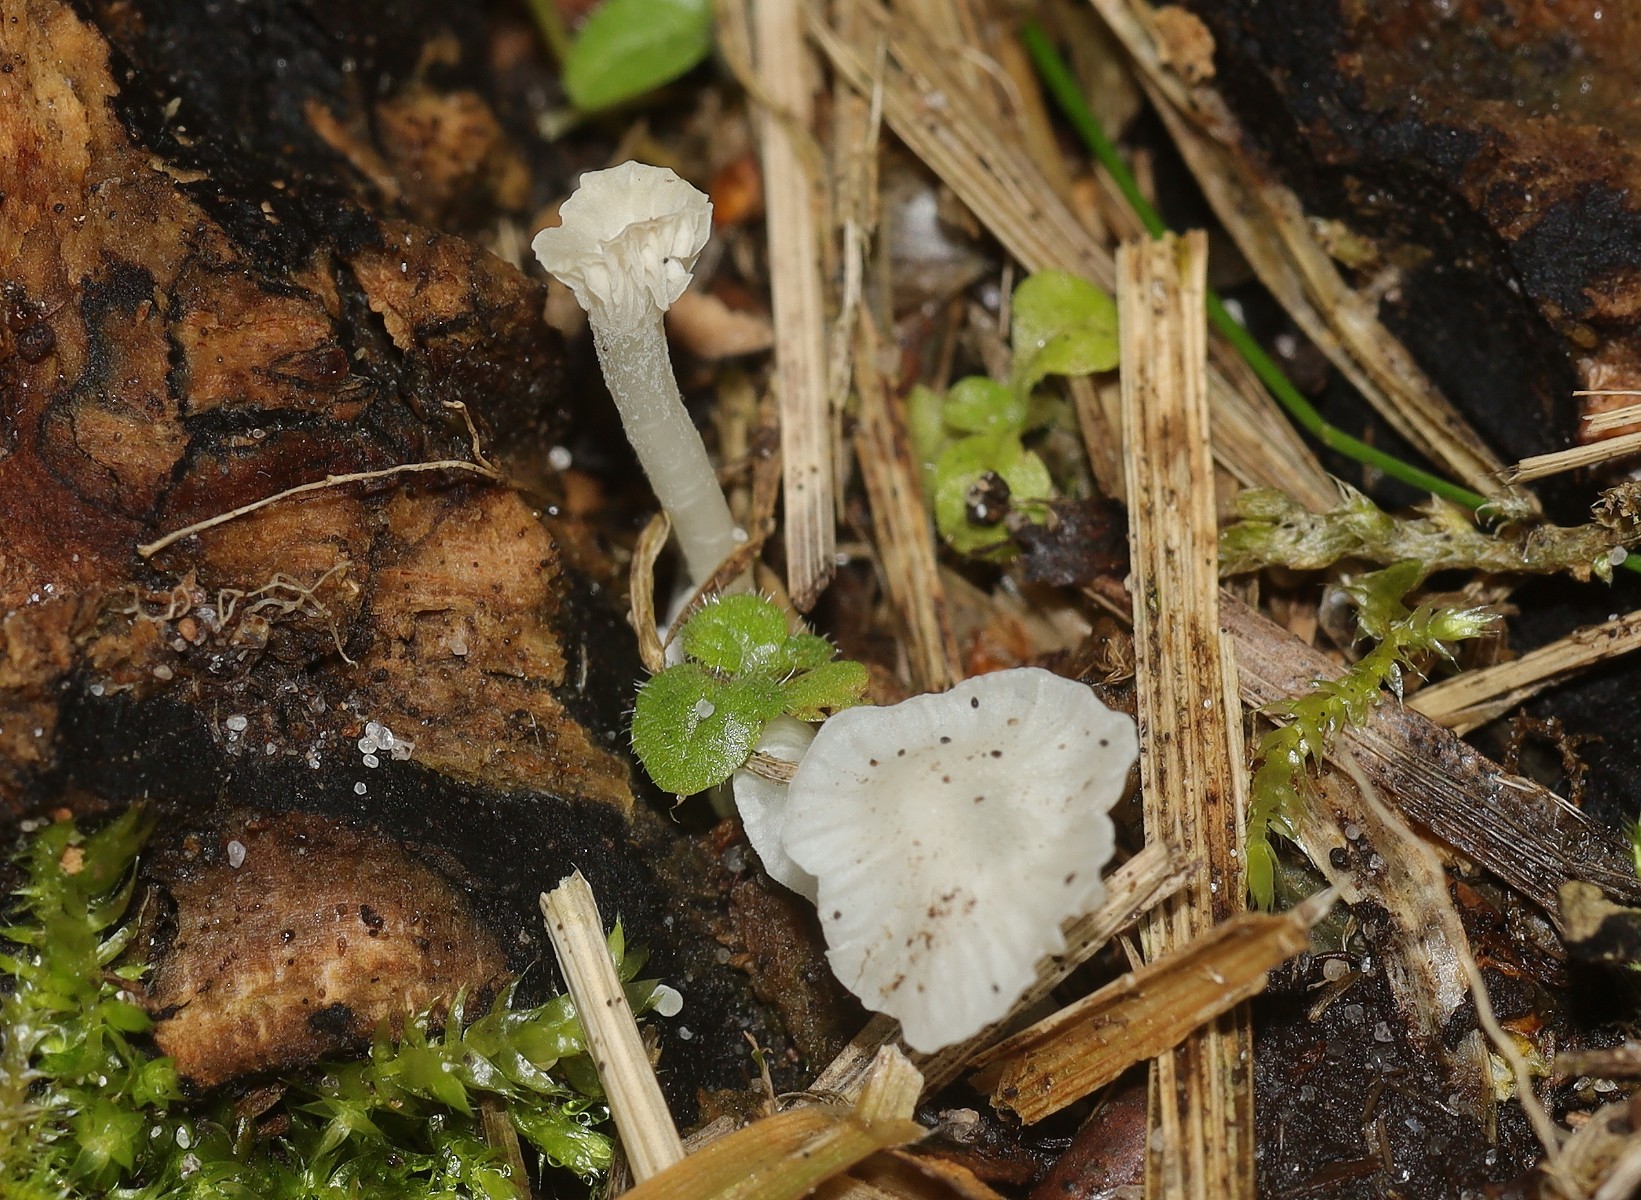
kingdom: Fungi
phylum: Basidiomycota
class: Agaricomycetes
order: Agaricales
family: Mycenaceae
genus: Atheniella
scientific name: Atheniella delectabilis
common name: nitrøs huesvamp
